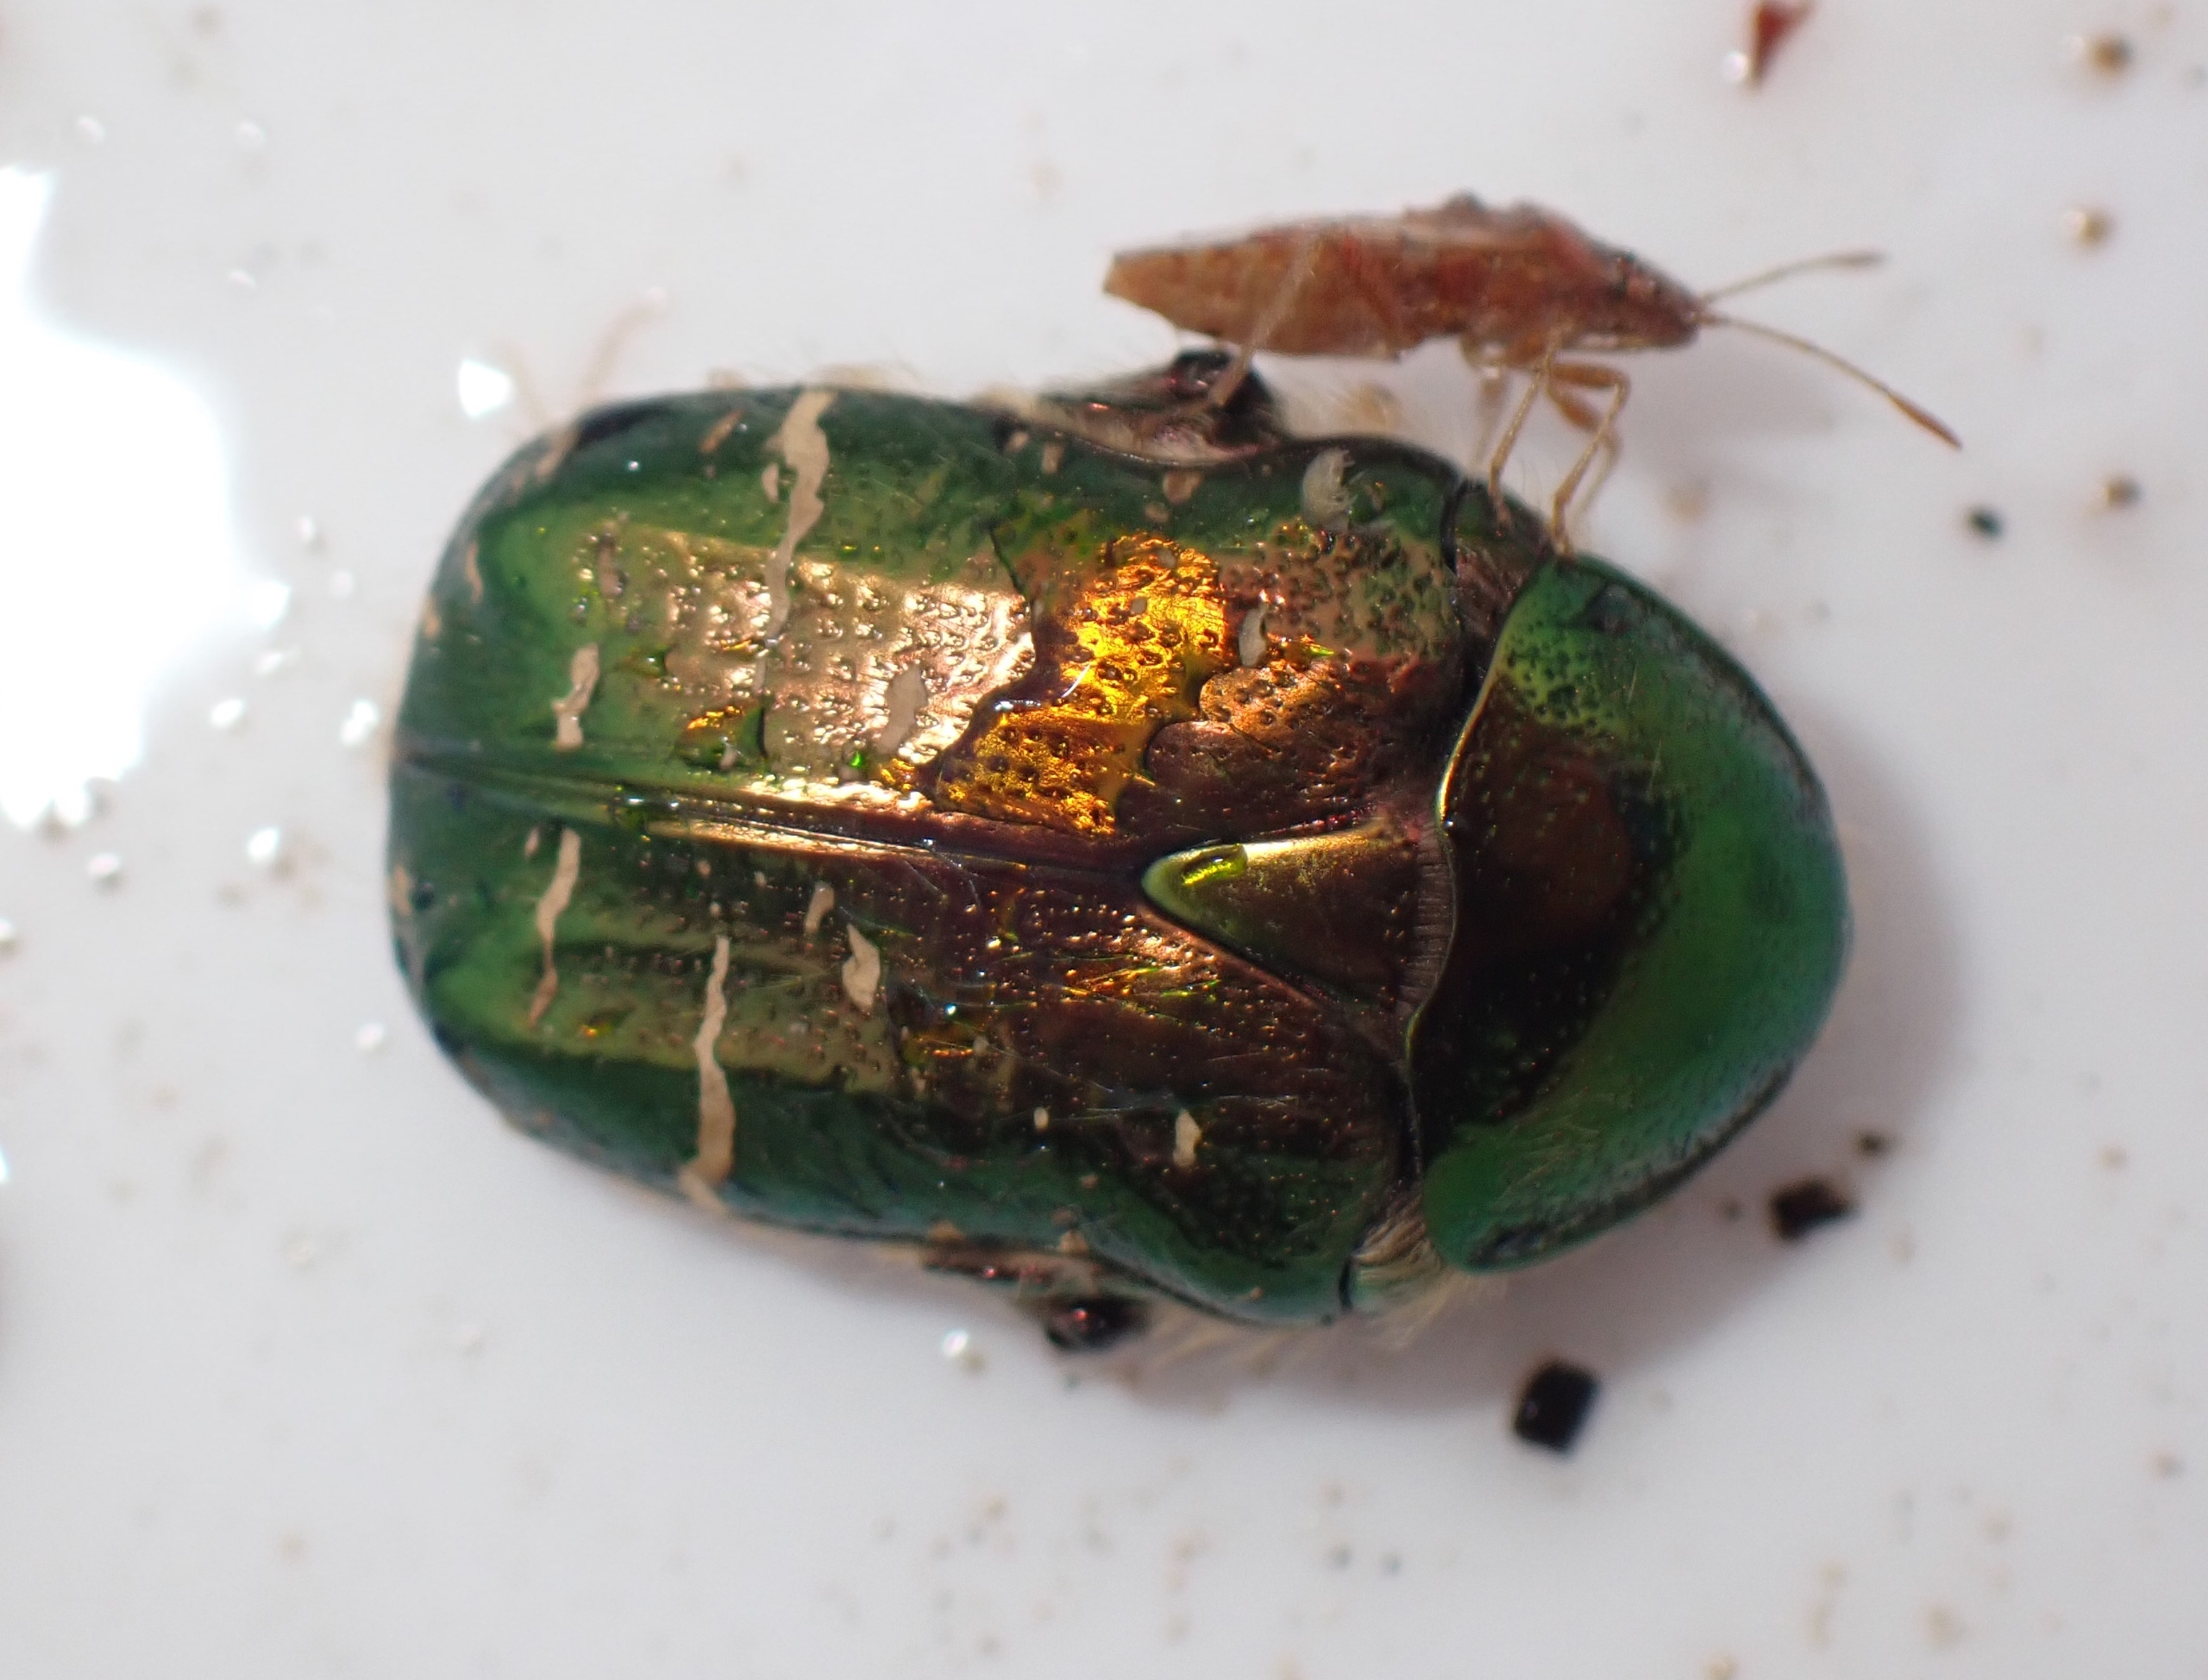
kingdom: Animalia
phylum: Arthropoda
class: Insecta
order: Coleoptera
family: Scarabaeidae
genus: Cetonia
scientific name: Cetonia aurata
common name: Grøn guldbasse
